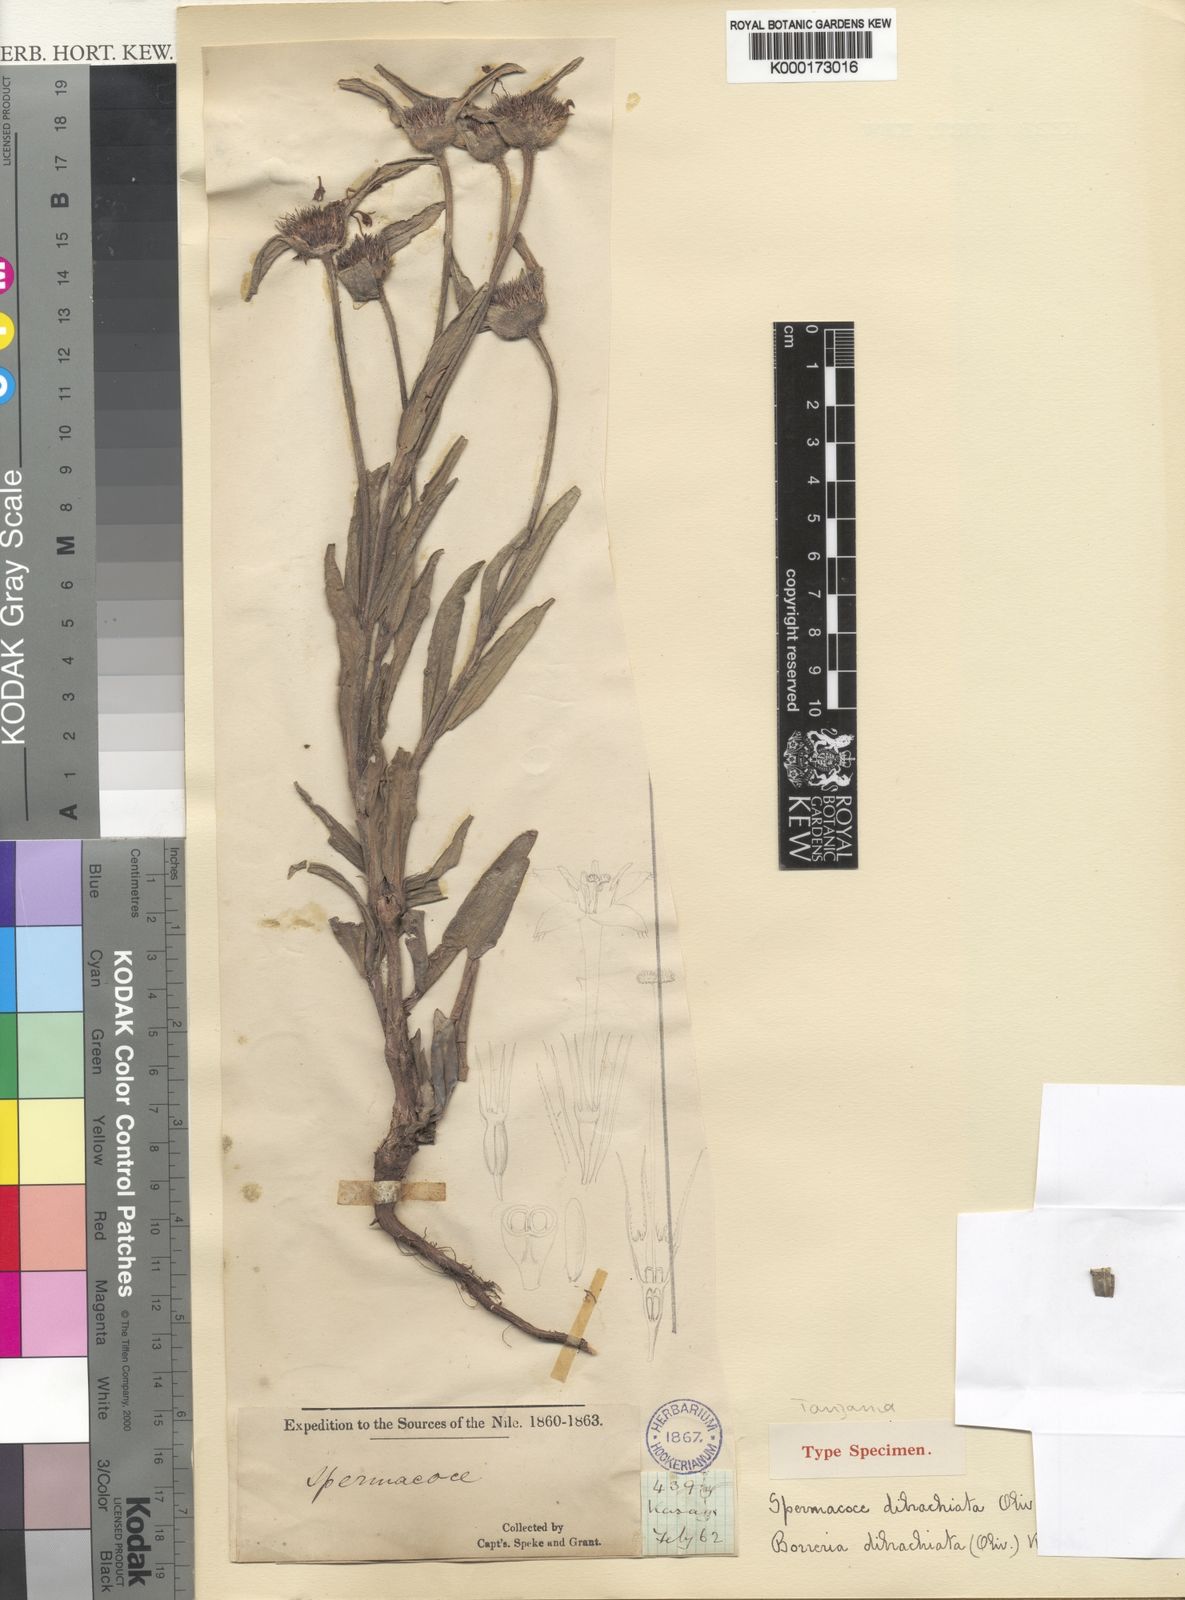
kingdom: Plantae
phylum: Tracheophyta
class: Magnoliopsida
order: Gentianales
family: Rubiaceae
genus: Spermacoce
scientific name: Spermacoce dibrachiata
